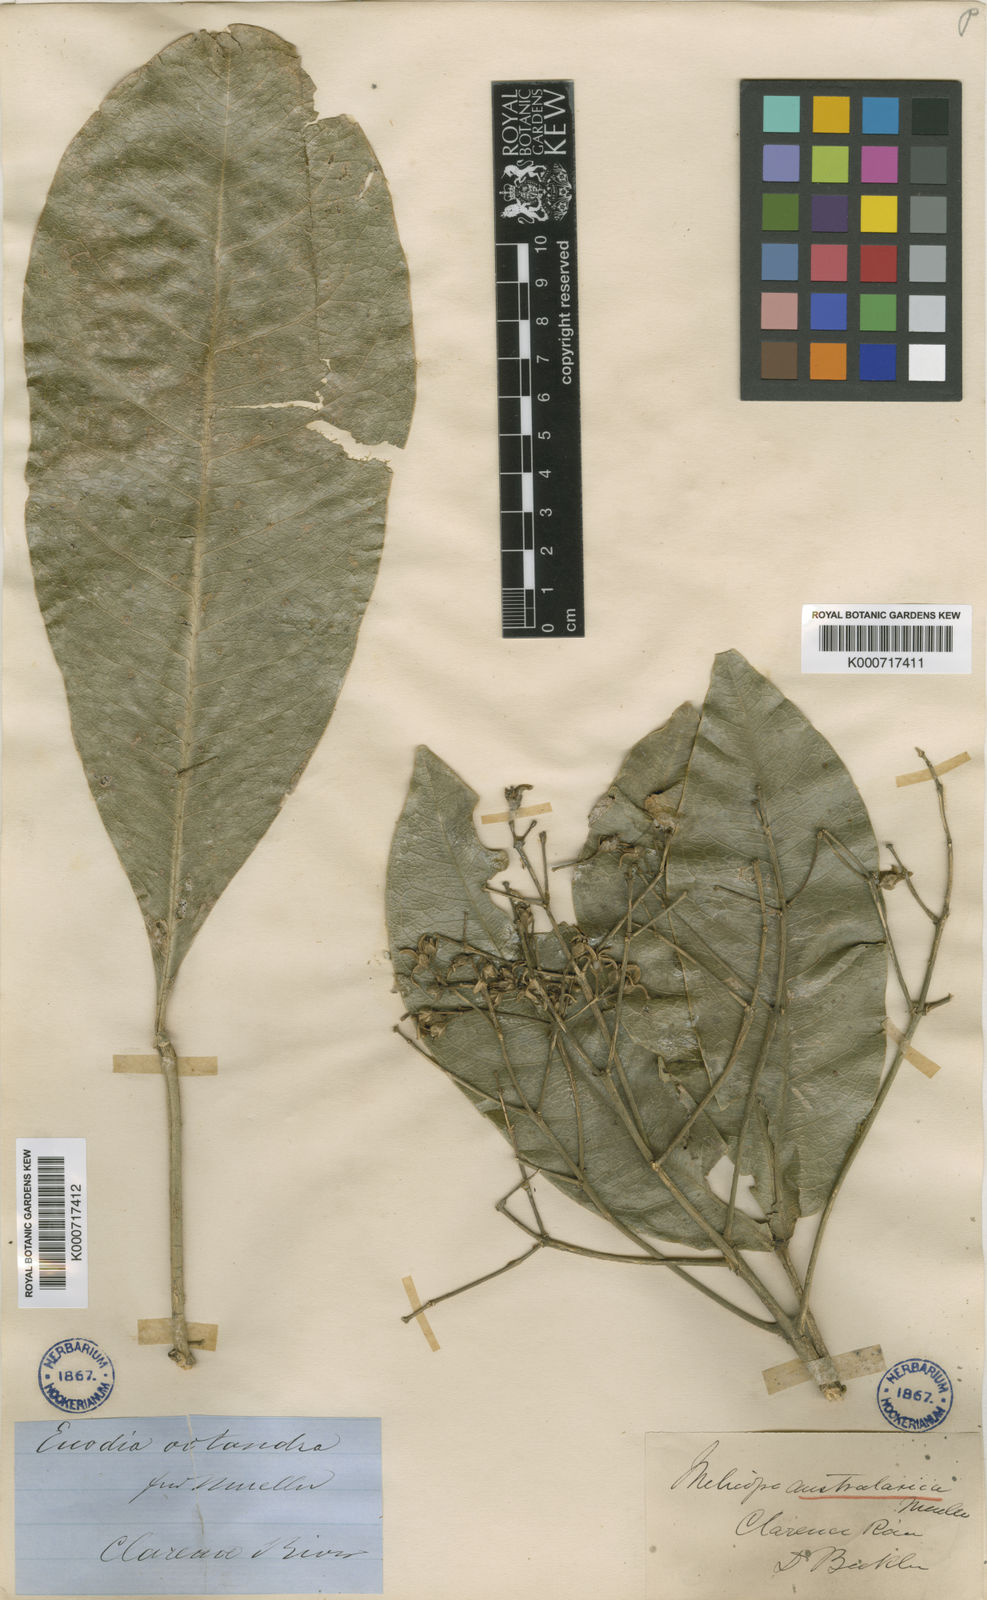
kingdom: Plantae
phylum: Tracheophyta
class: Magnoliopsida
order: Sapindales
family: Rutaceae
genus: Acronychia
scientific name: Acronychia octandra
